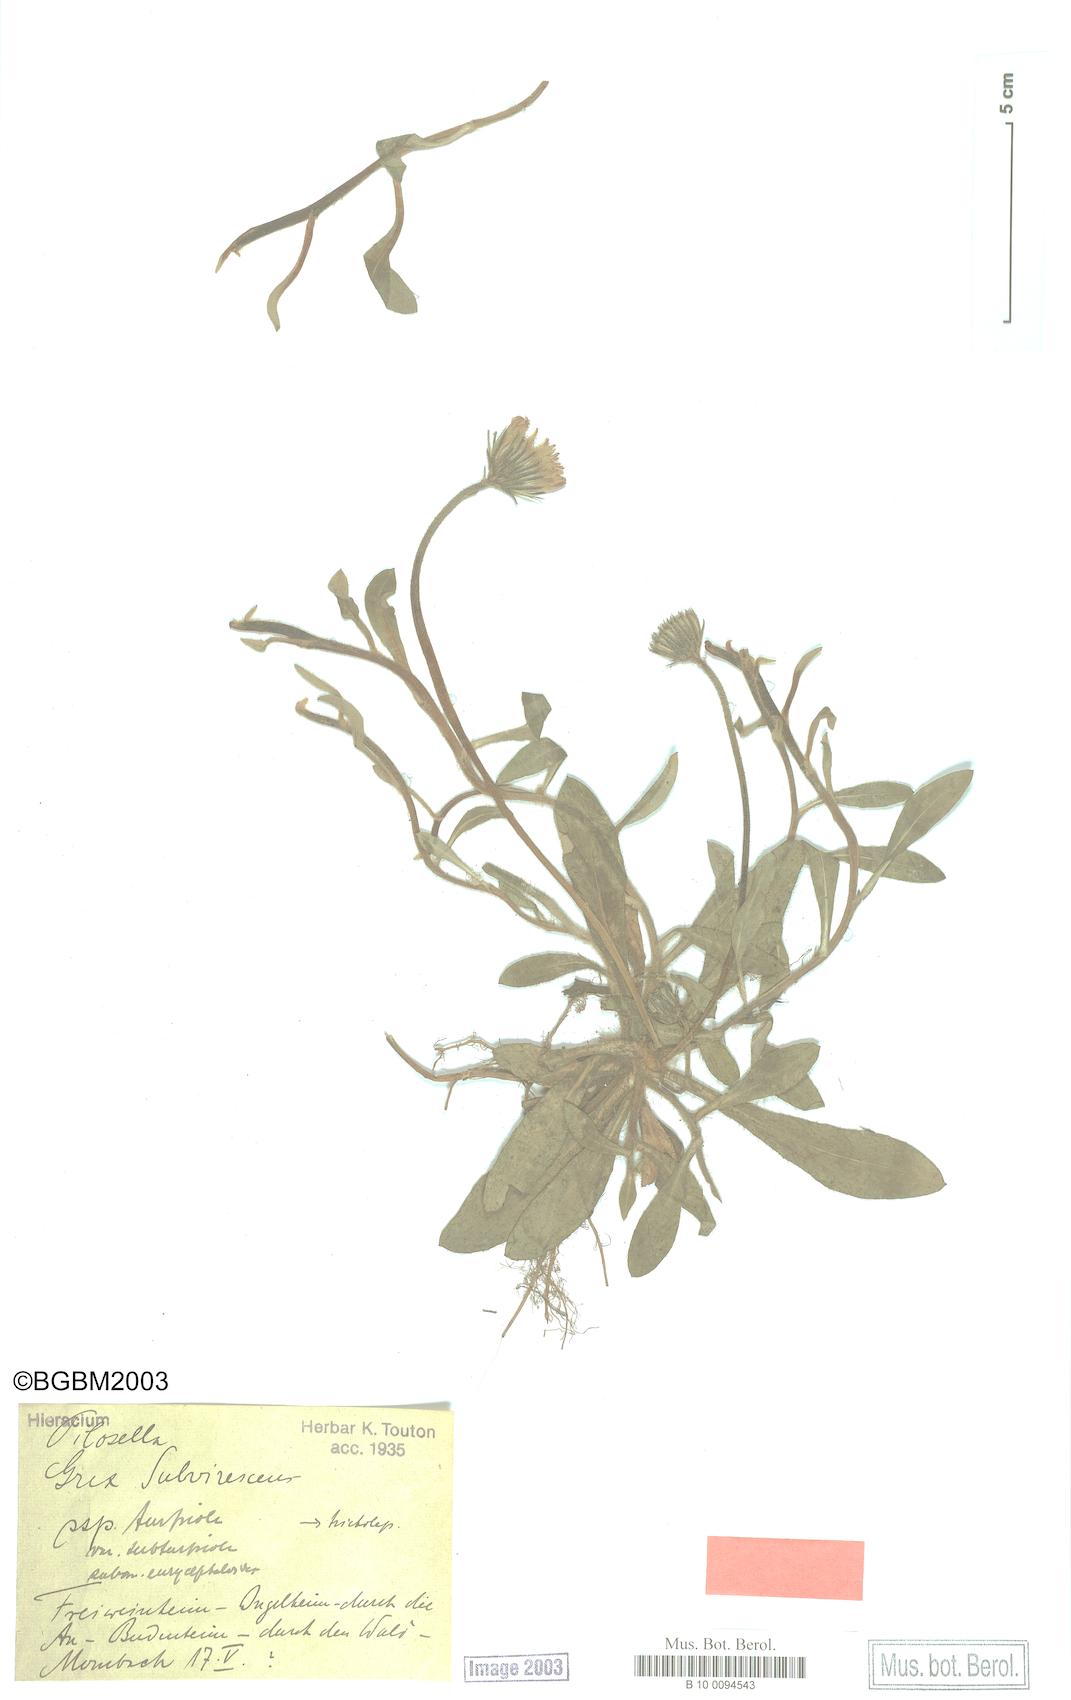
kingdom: Plantae
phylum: Tracheophyta
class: Magnoliopsida
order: Asterales
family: Asteraceae
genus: Pilosella
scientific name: Pilosella officinarum
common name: Mouse-ear hawkweed
